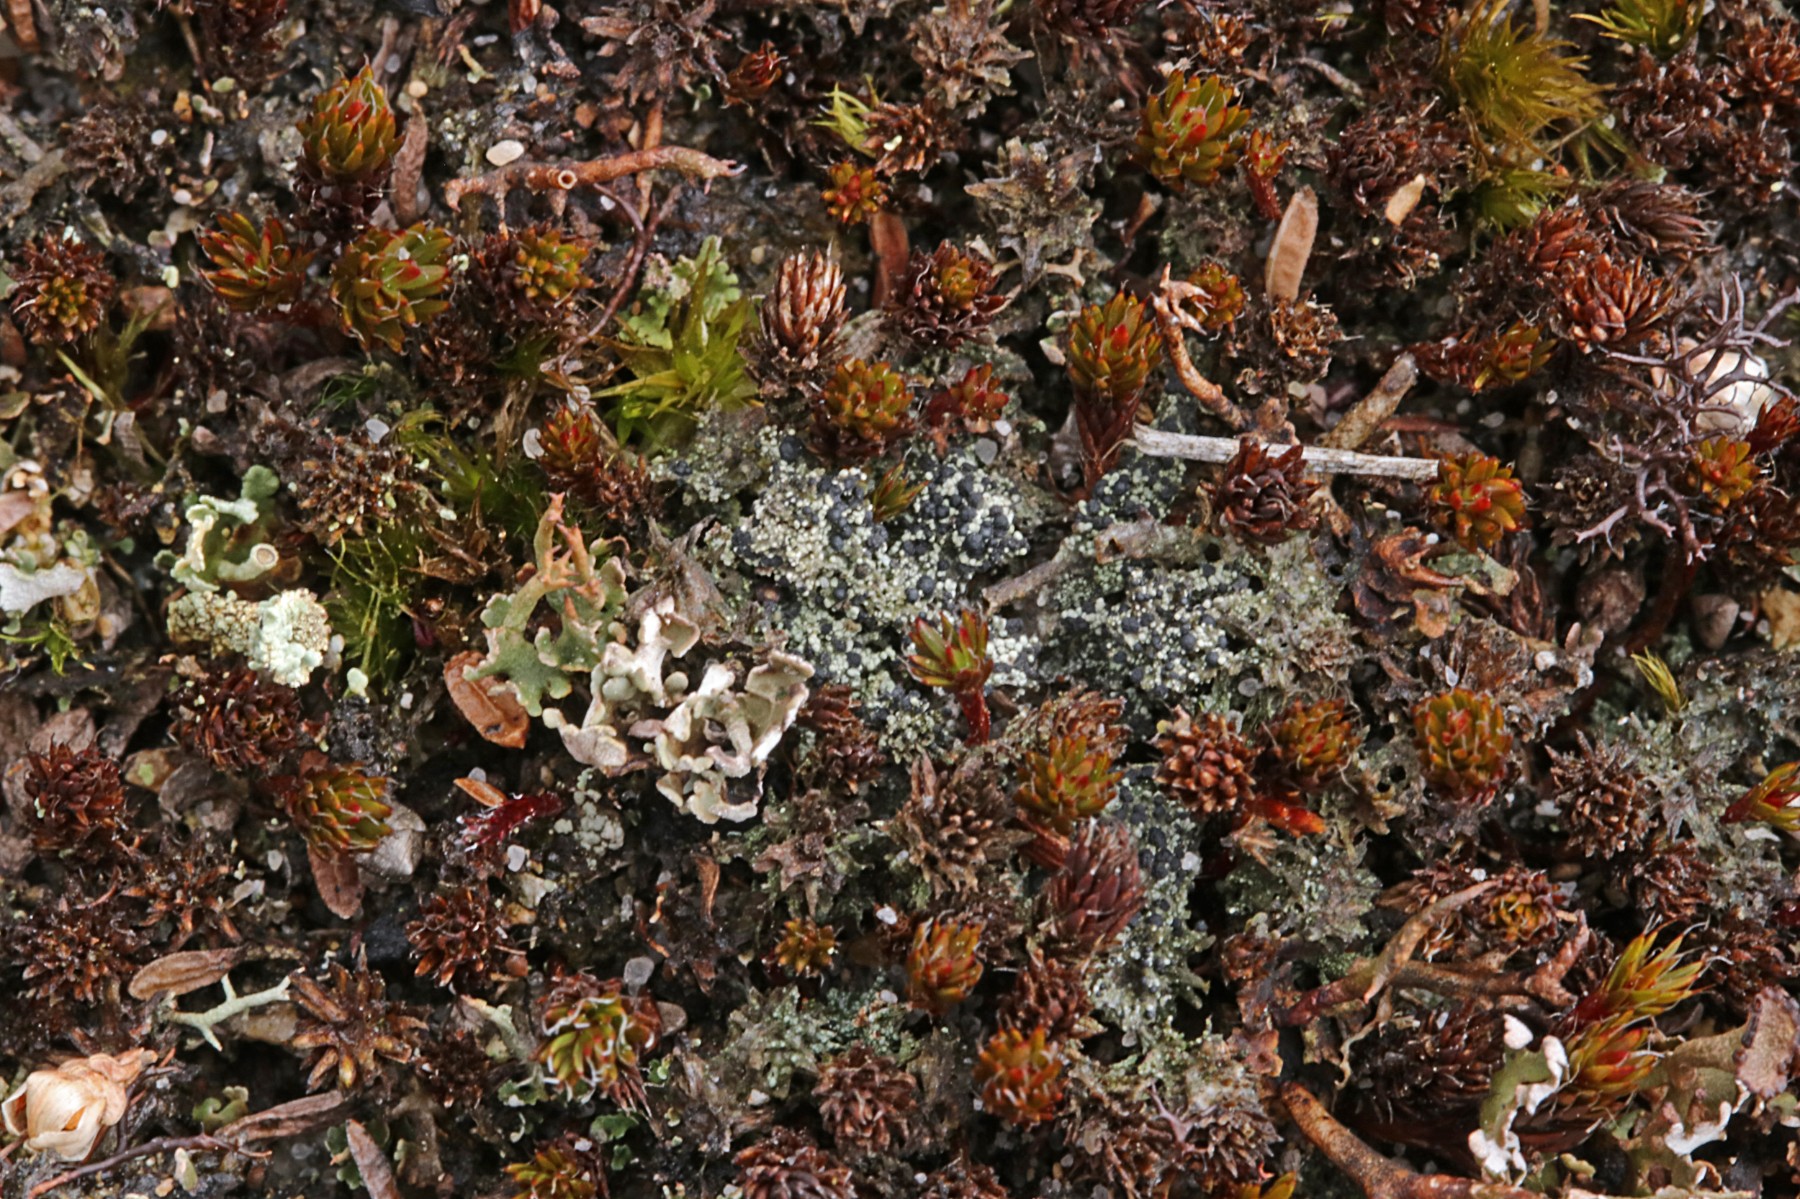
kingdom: Fungi
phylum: Ascomycota
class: Lecanoromycetes
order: Lecanorales
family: Byssolomataceae
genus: Micarea
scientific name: Micarea lignaria
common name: tørve-knaplav
